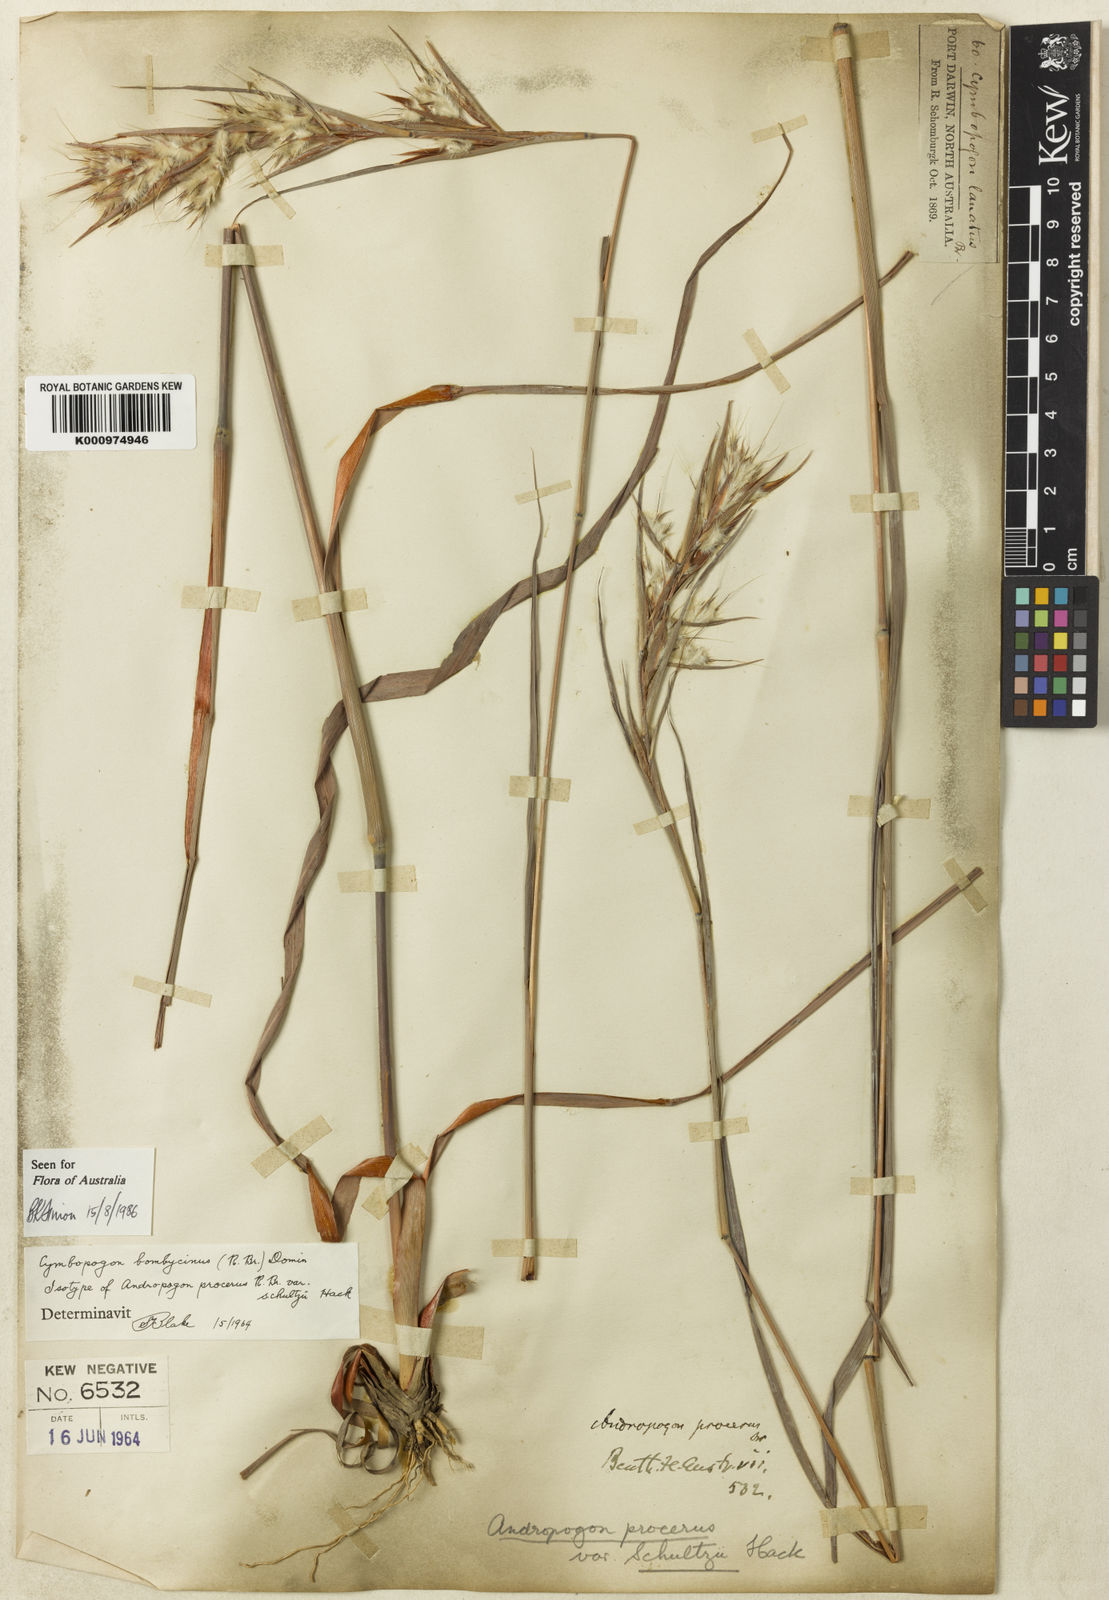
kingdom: Plantae
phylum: Tracheophyta
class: Liliopsida
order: Poales
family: Poaceae
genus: Cymbopogon
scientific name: Cymbopogon bombycinus
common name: Citronella grass
